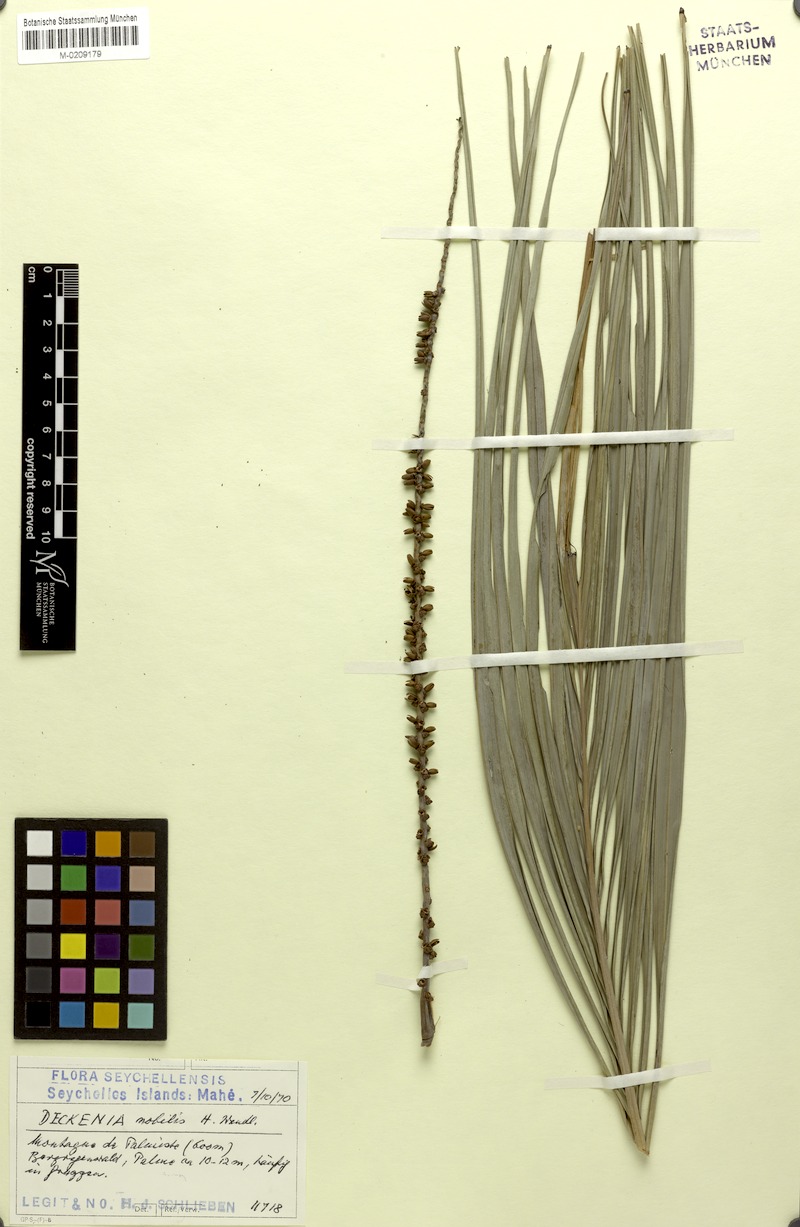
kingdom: Plantae
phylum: Tracheophyta
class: Liliopsida
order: Arecales
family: Arecaceae
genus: Deckenia
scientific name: Deckenia nobilis
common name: Cabbage palm
